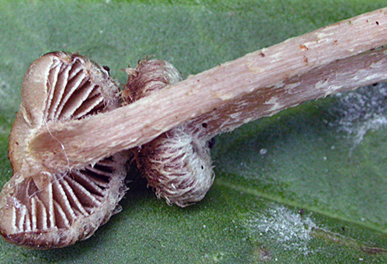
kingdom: Fungi
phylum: Basidiomycota
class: Agaricomycetes
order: Agaricales
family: Inocybaceae
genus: Inocybe
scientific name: Inocybe squarrosa
